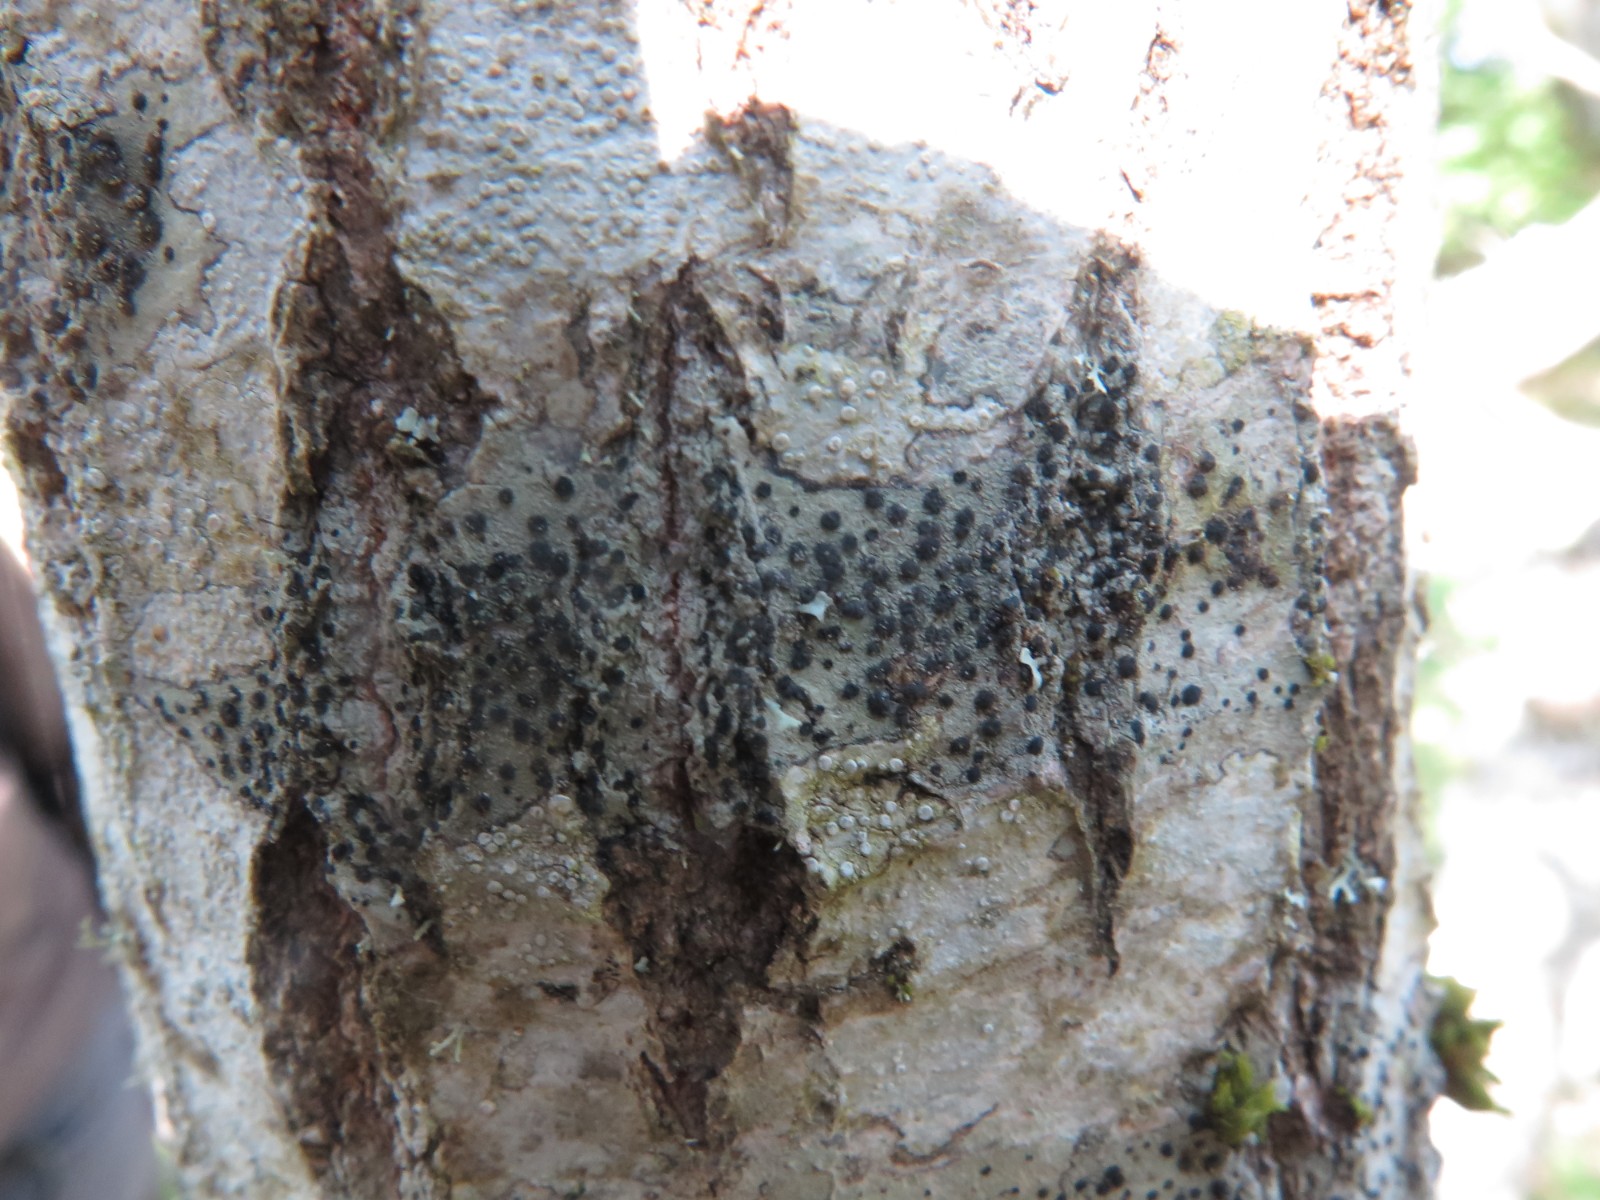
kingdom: Fungi
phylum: Ascomycota
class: Lecanoromycetes
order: Lecanorales
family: Lecanoraceae
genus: Lecidella
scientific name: Lecidella elaeochroma
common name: grågrøn skivelav
